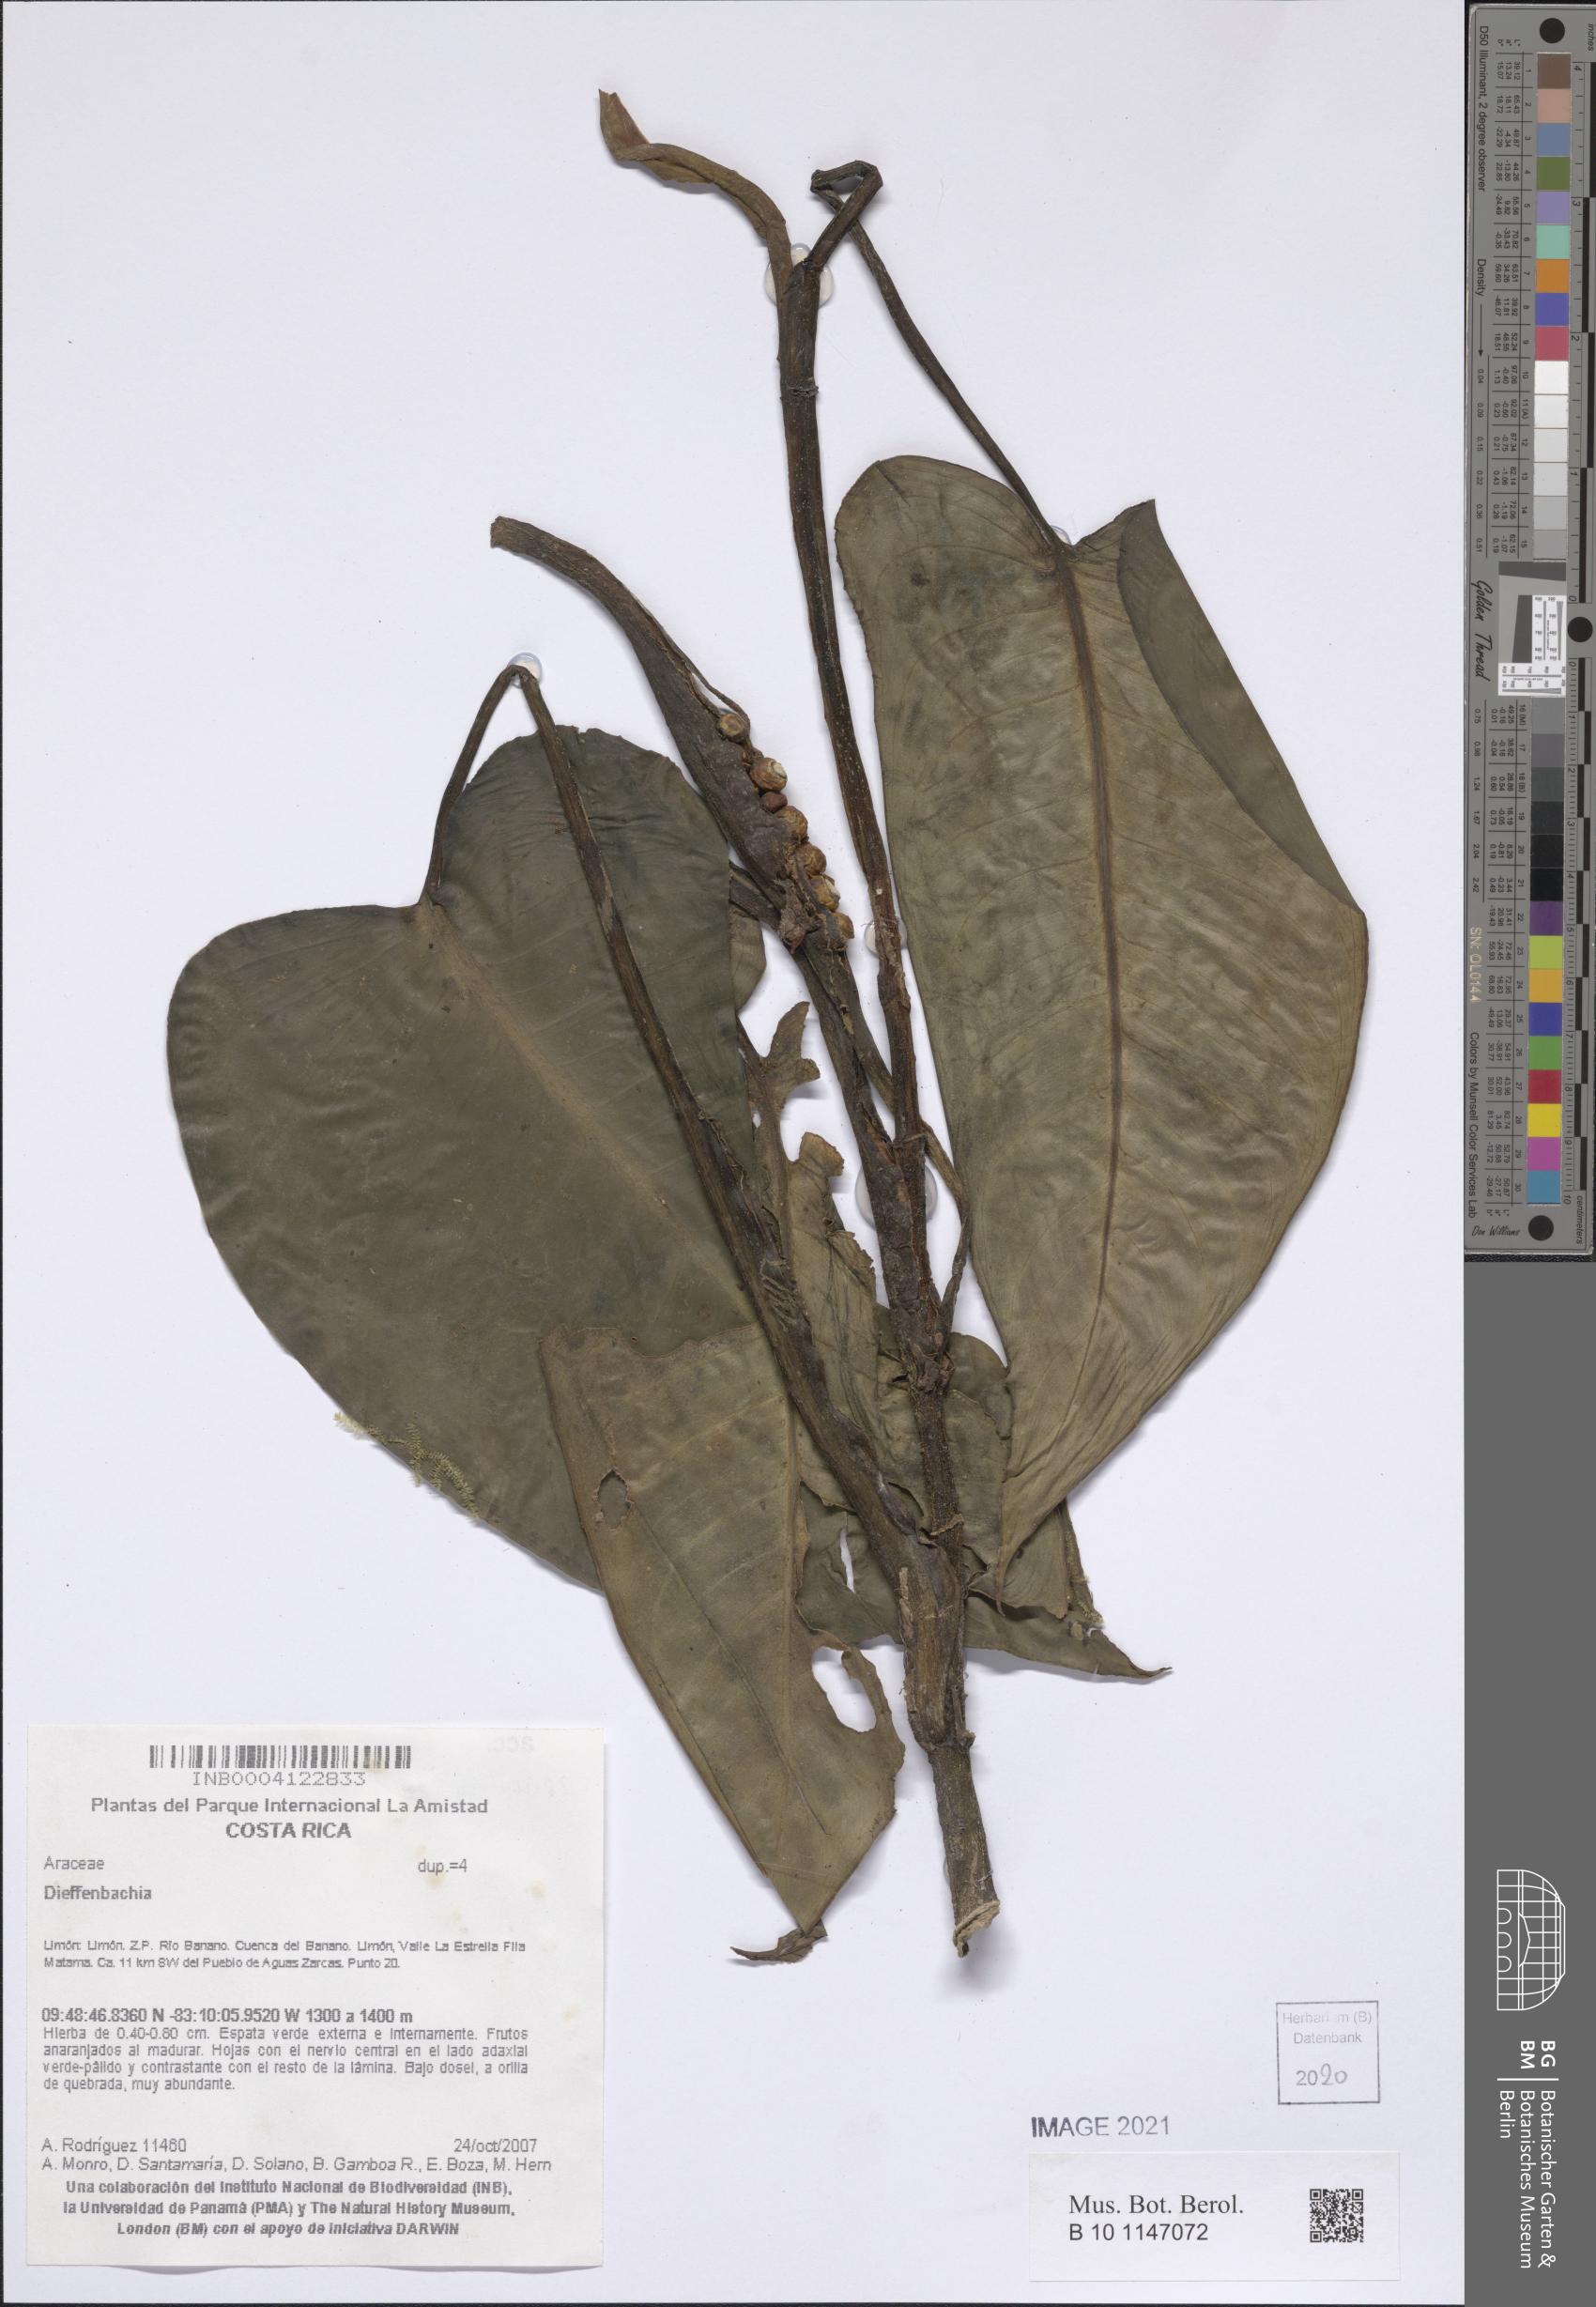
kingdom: Plantae
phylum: Tracheophyta
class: Liliopsida
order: Alismatales
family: Araceae
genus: Dieffenbachia
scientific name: Dieffenbachia
